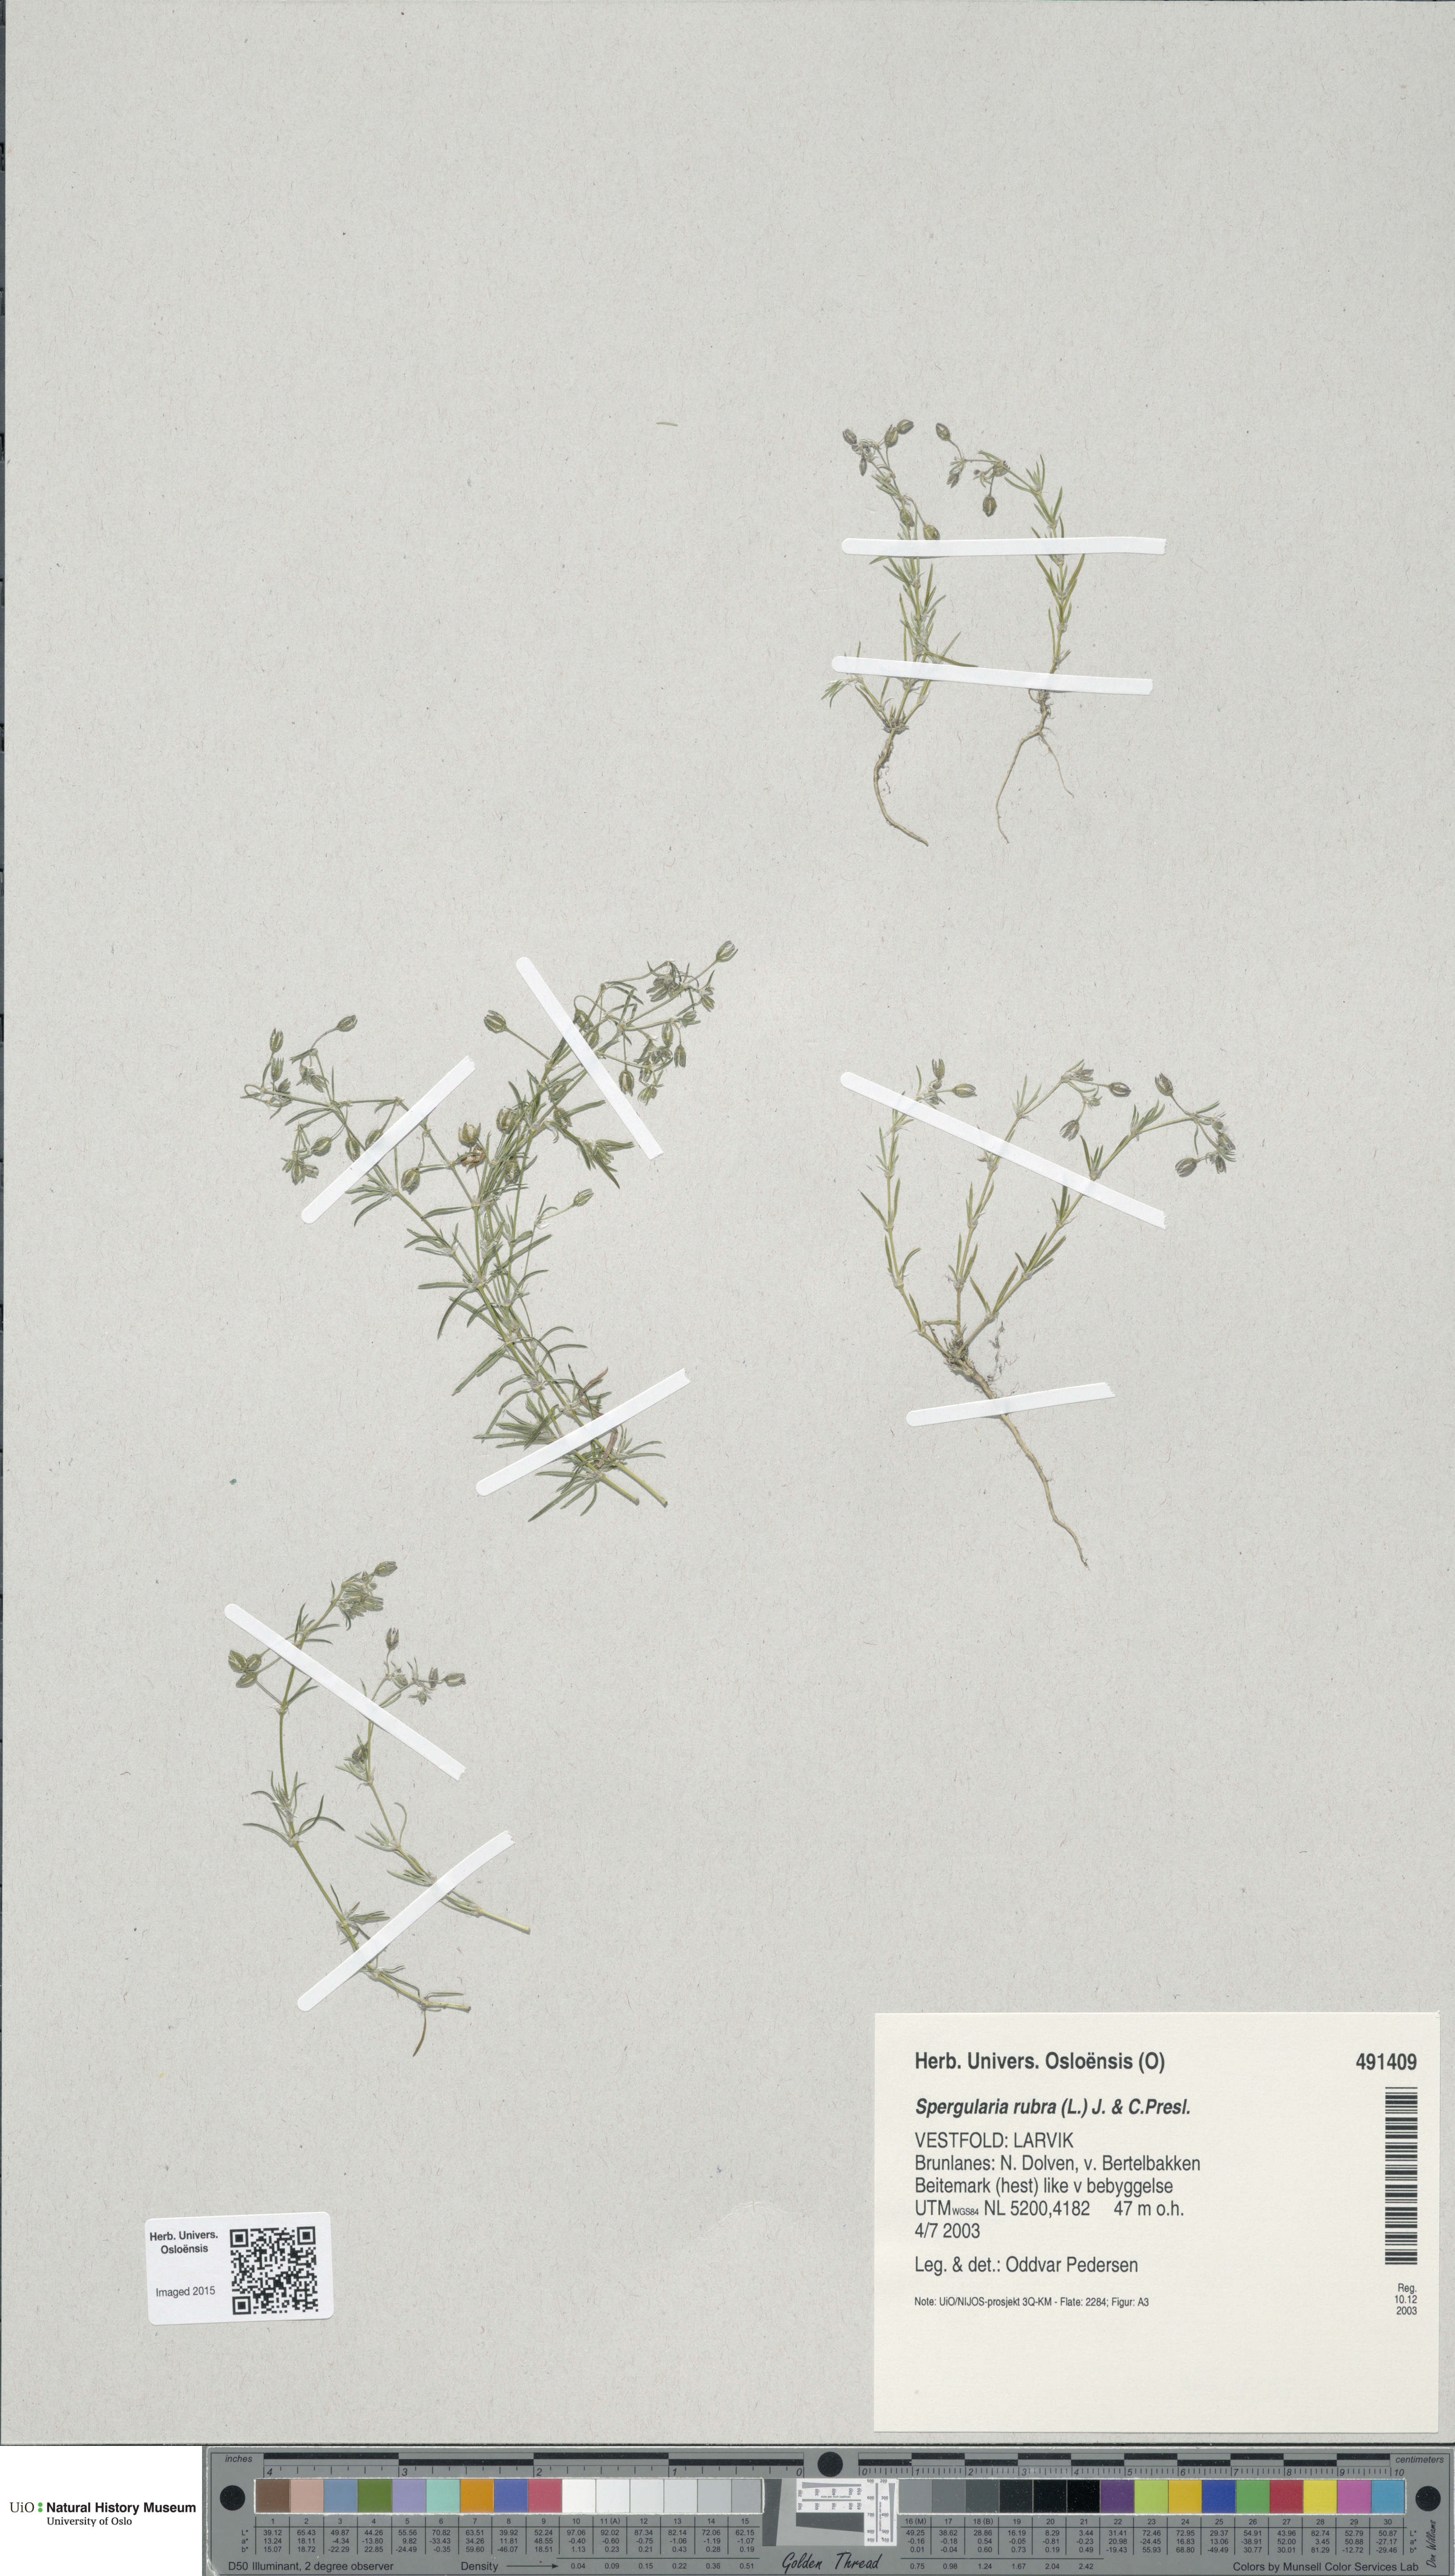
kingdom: Plantae
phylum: Tracheophyta
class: Magnoliopsida
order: Caryophyllales
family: Caryophyllaceae
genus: Spergularia
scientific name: Spergularia rubra
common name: Red sand-spurrey
